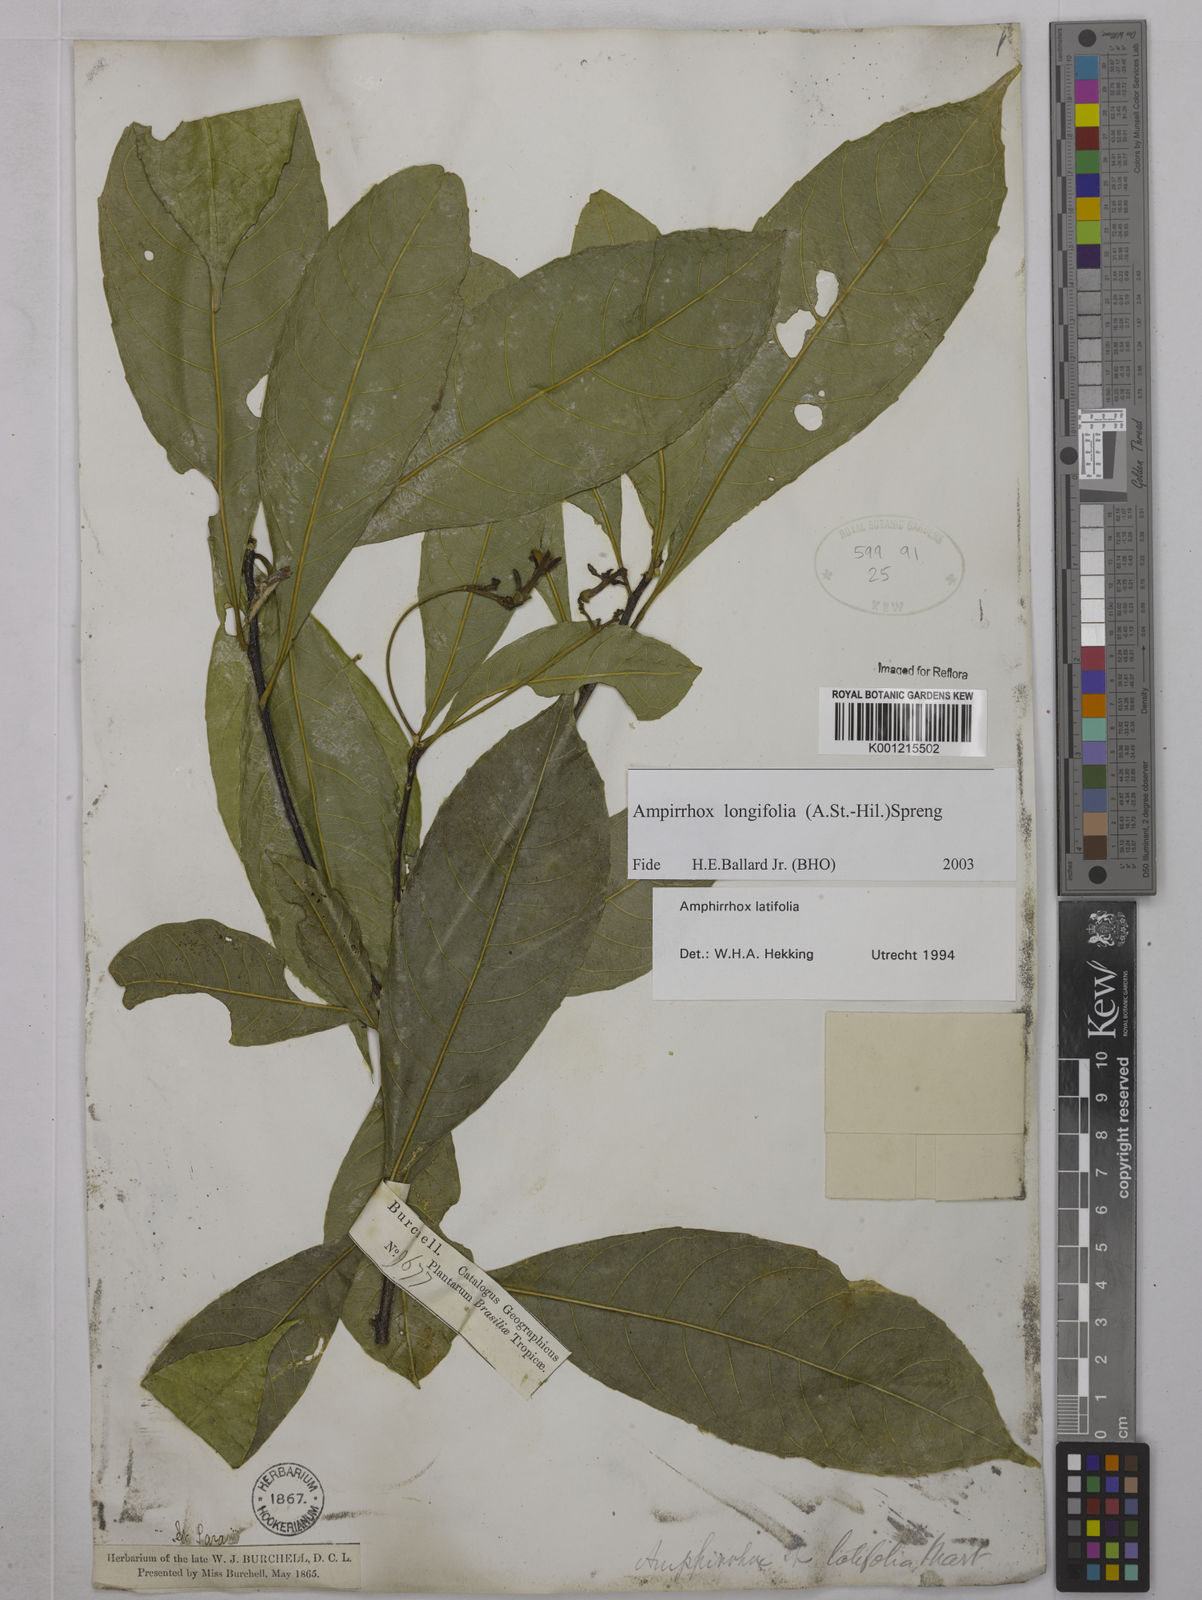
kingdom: Plantae
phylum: Tracheophyta
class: Magnoliopsida
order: Malpighiales
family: Violaceae
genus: Amphirrhox
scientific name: Amphirrhox longifolia
